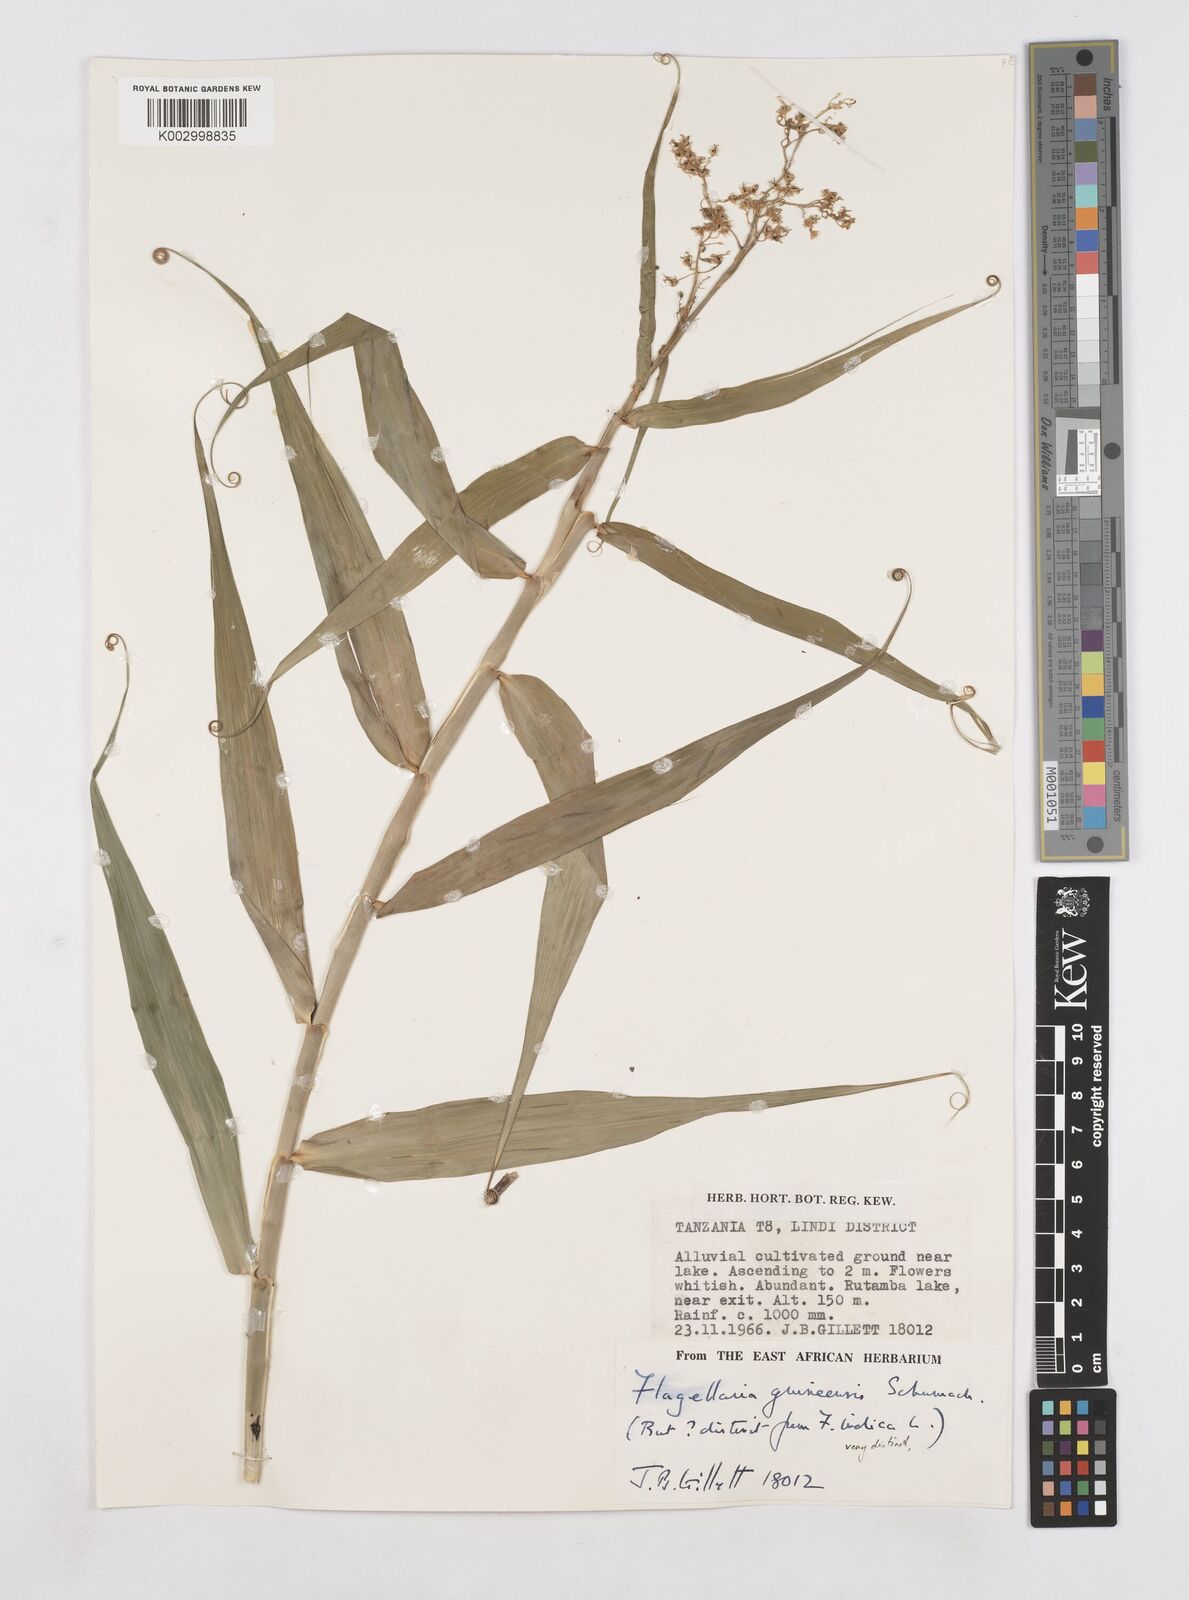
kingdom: Plantae
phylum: Tracheophyta
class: Liliopsida
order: Poales
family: Flagellariaceae
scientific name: Flagellariaceae
